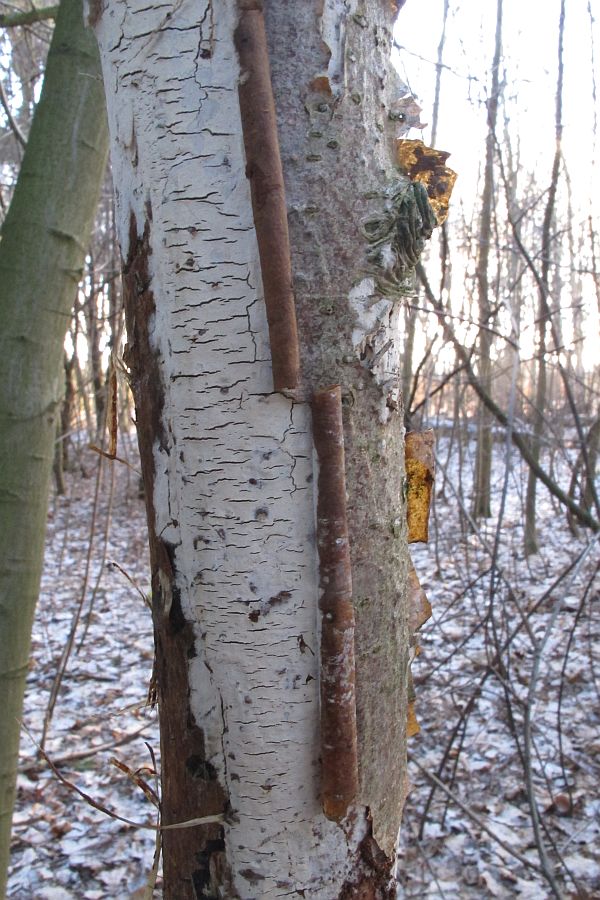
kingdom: Fungi
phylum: Basidiomycota
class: Agaricomycetes
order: Polyporales
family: Hyphodermataceae
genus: Hyphoderma
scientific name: Hyphoderma setigerum
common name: håret kalkskind
